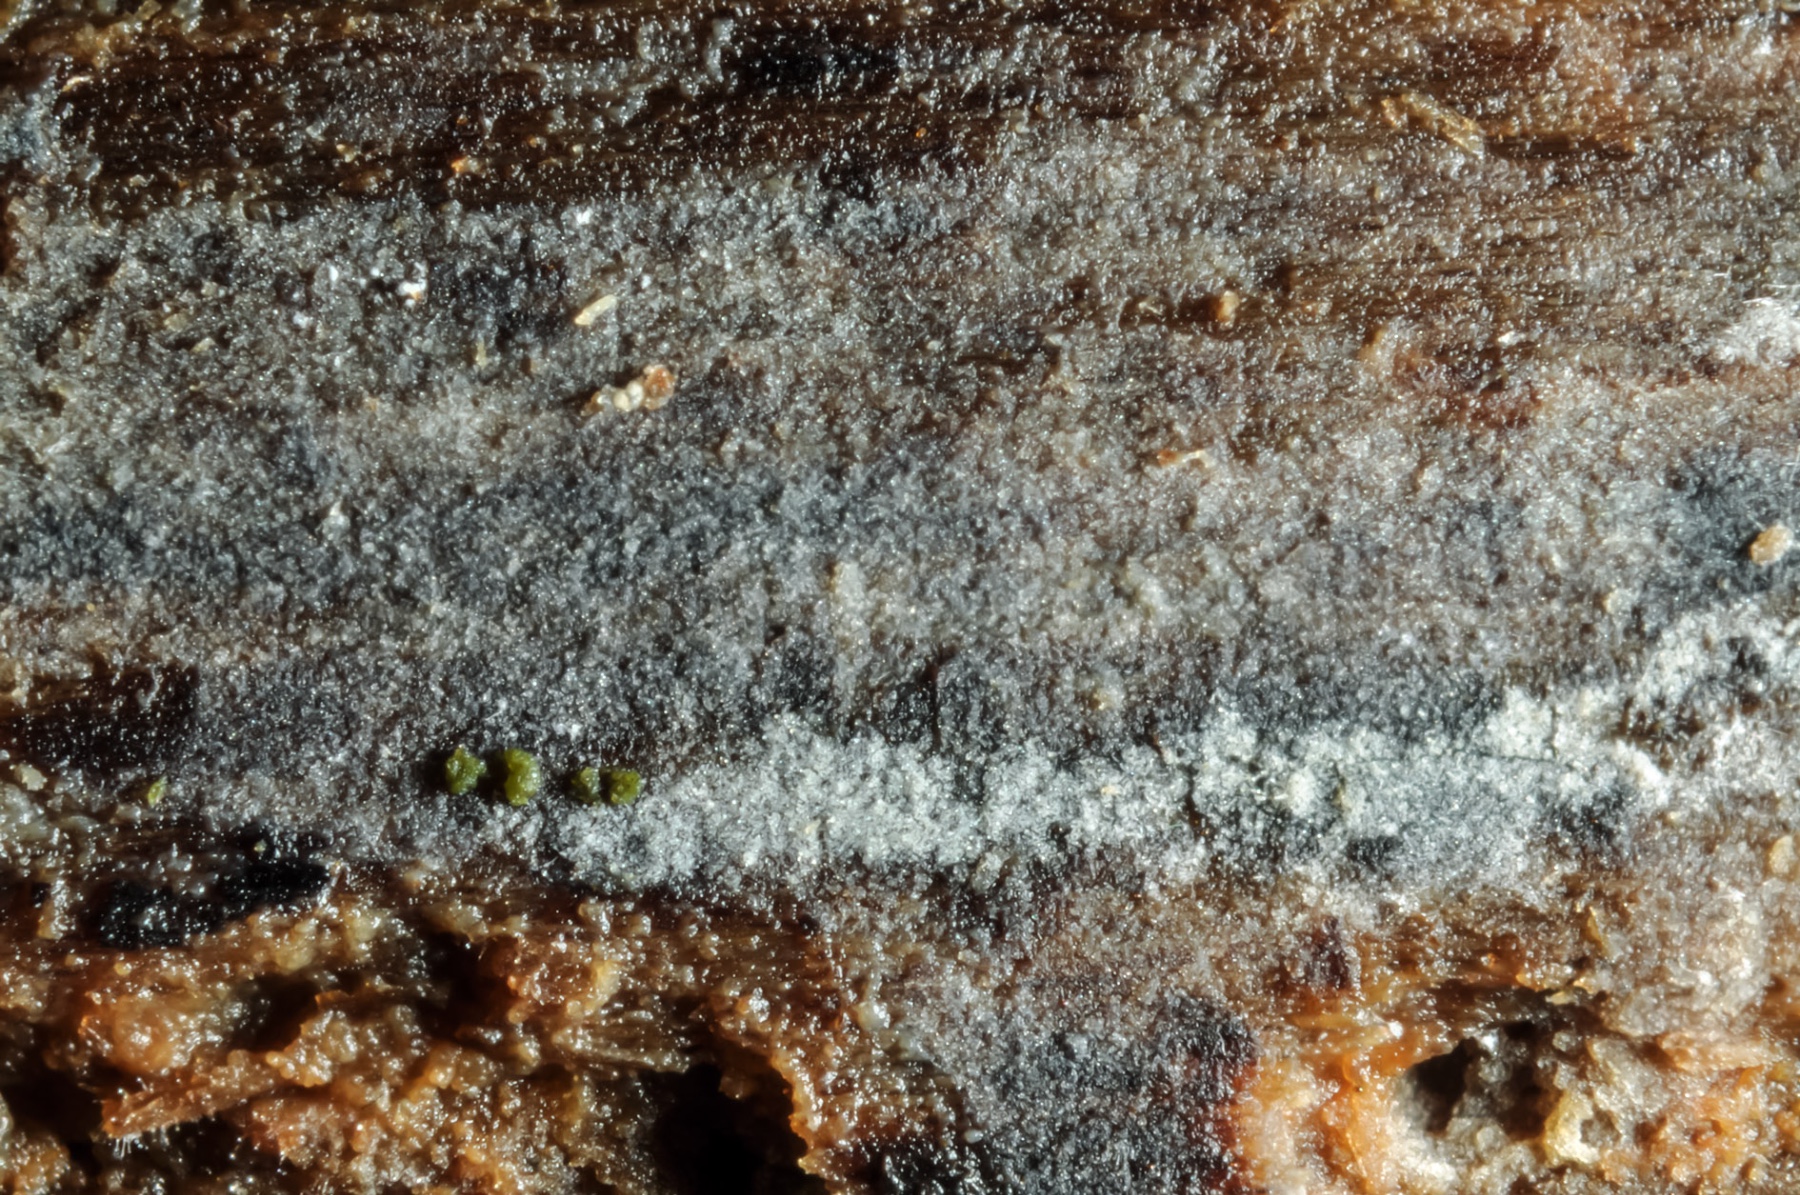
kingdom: Fungi
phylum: Basidiomycota
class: Agaricomycetes
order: Hymenochaetales
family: Hymenochaetaceae
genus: Tubulicrinis
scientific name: Tubulicrinis accedens
